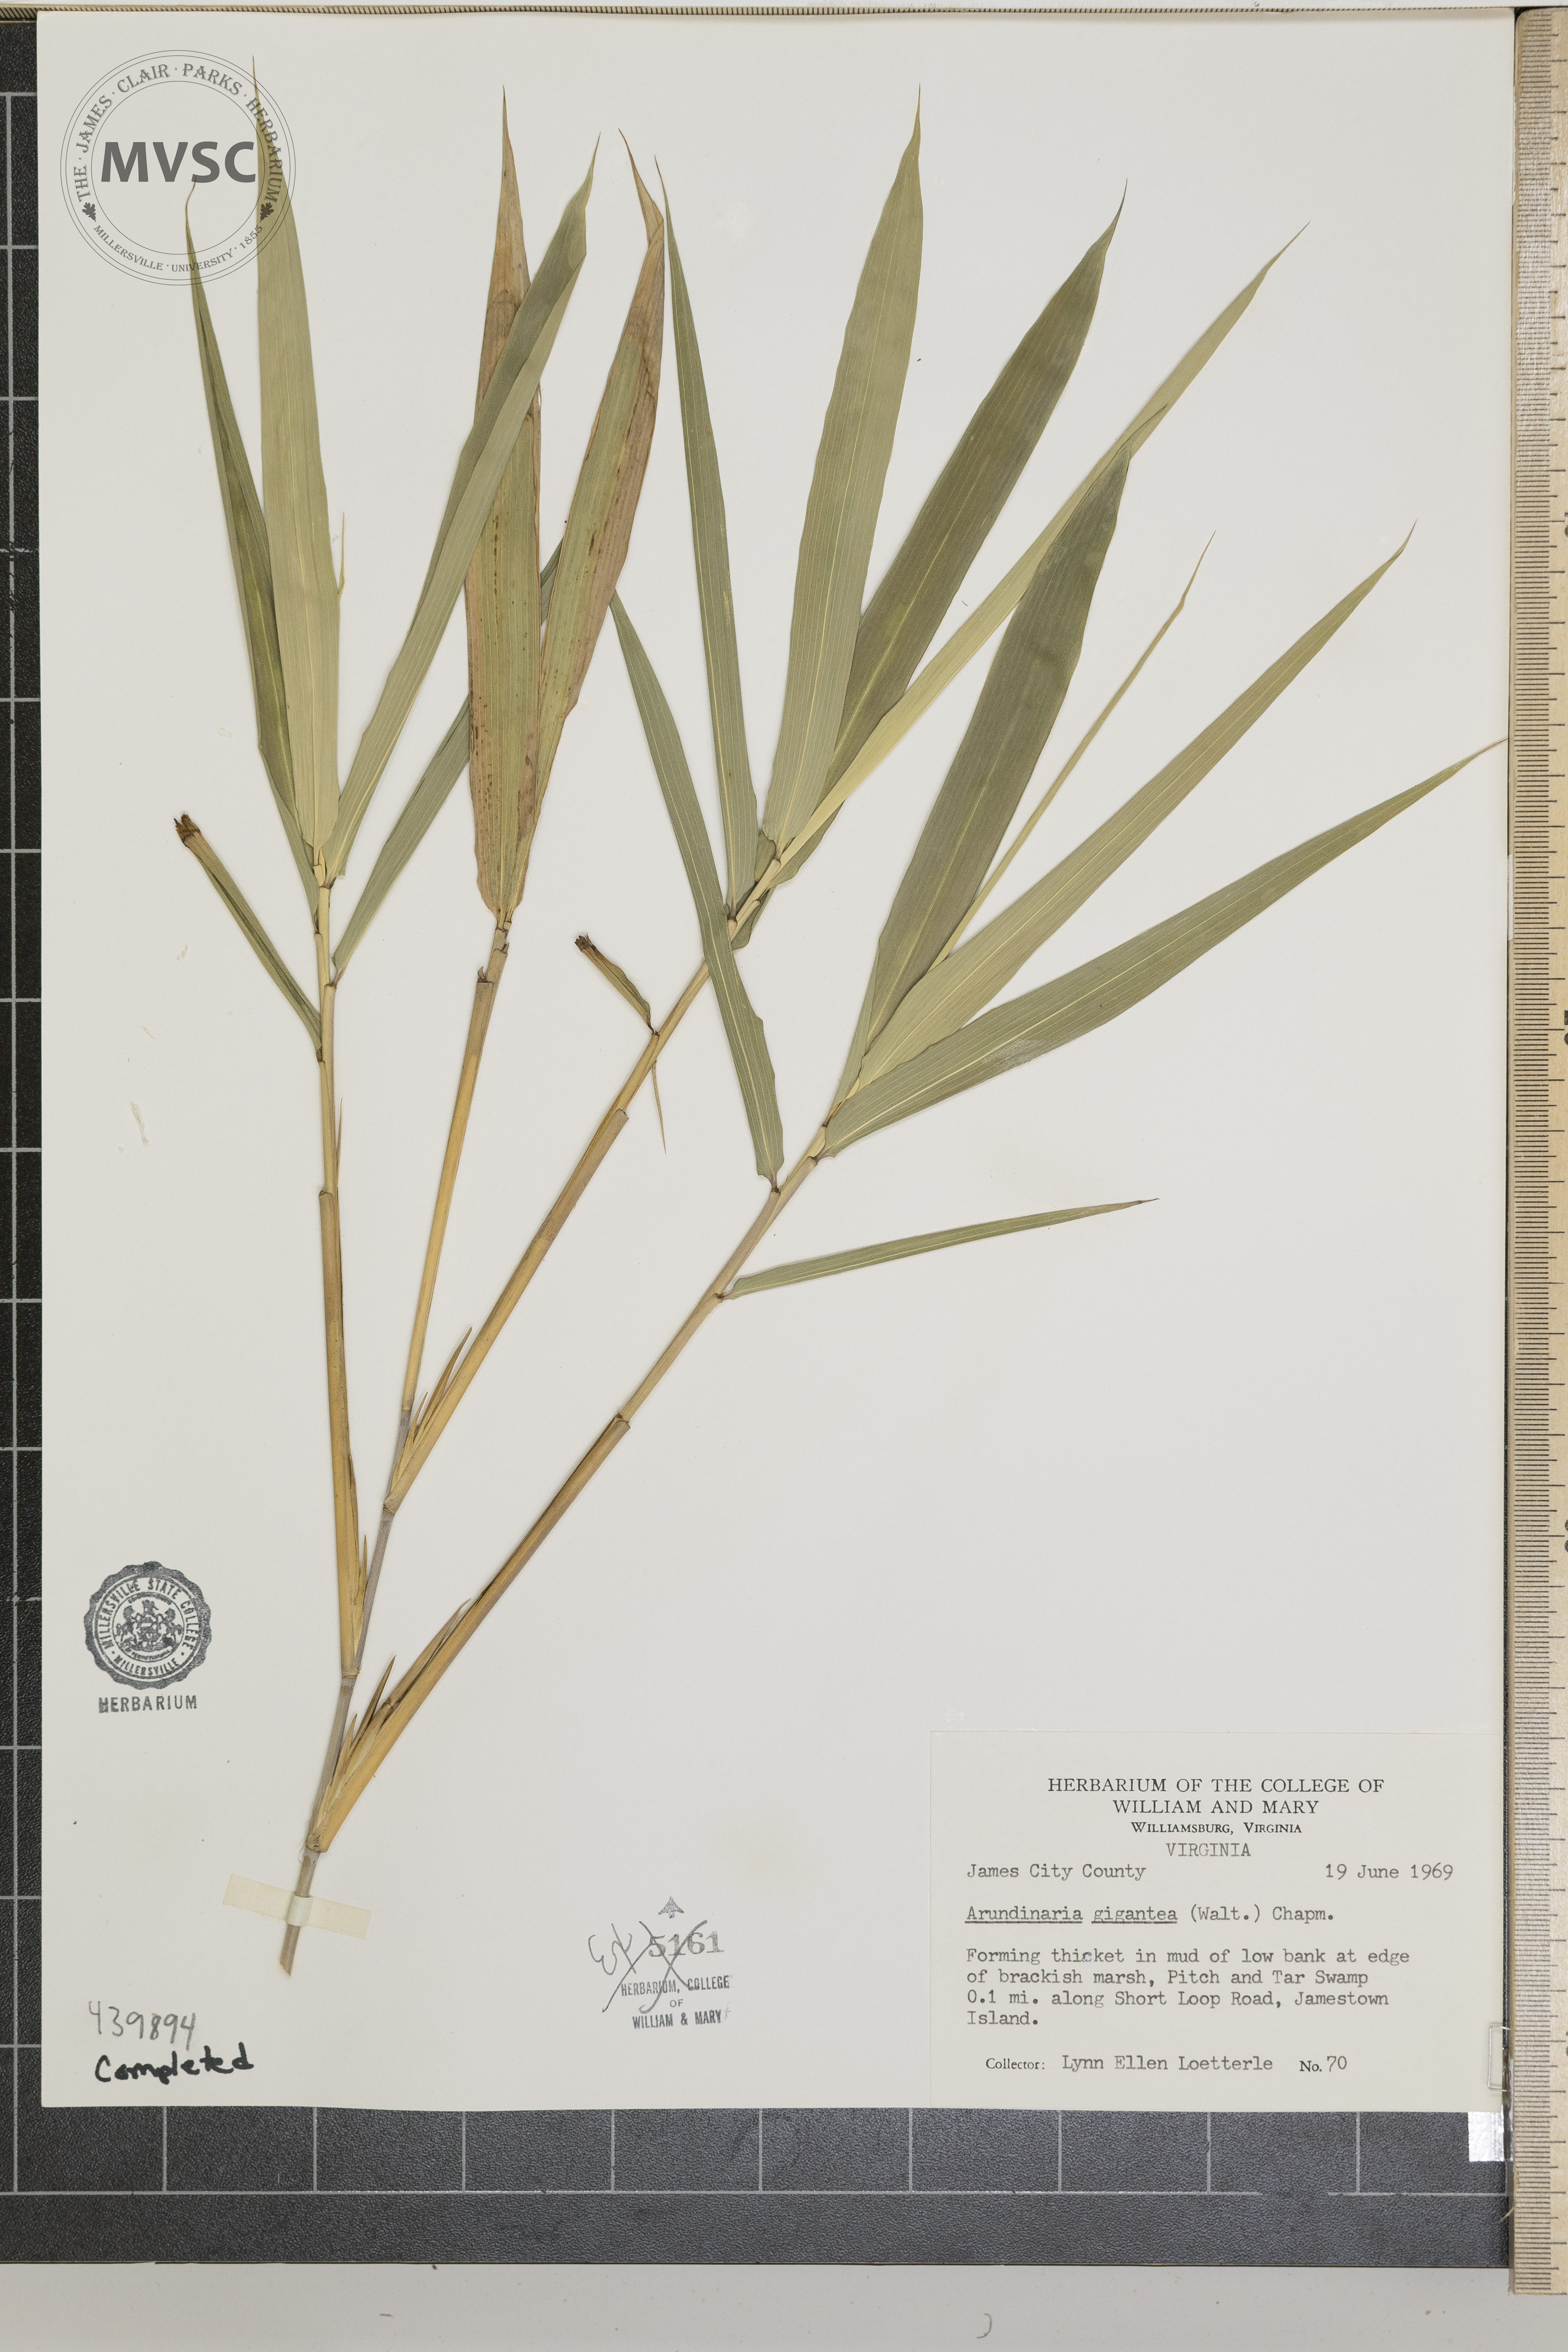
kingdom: Plantae
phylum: Tracheophyta
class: Liliopsida
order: Poales
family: Poaceae
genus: Arundinaria
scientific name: Arundinaria gigantea
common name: Giant cane
